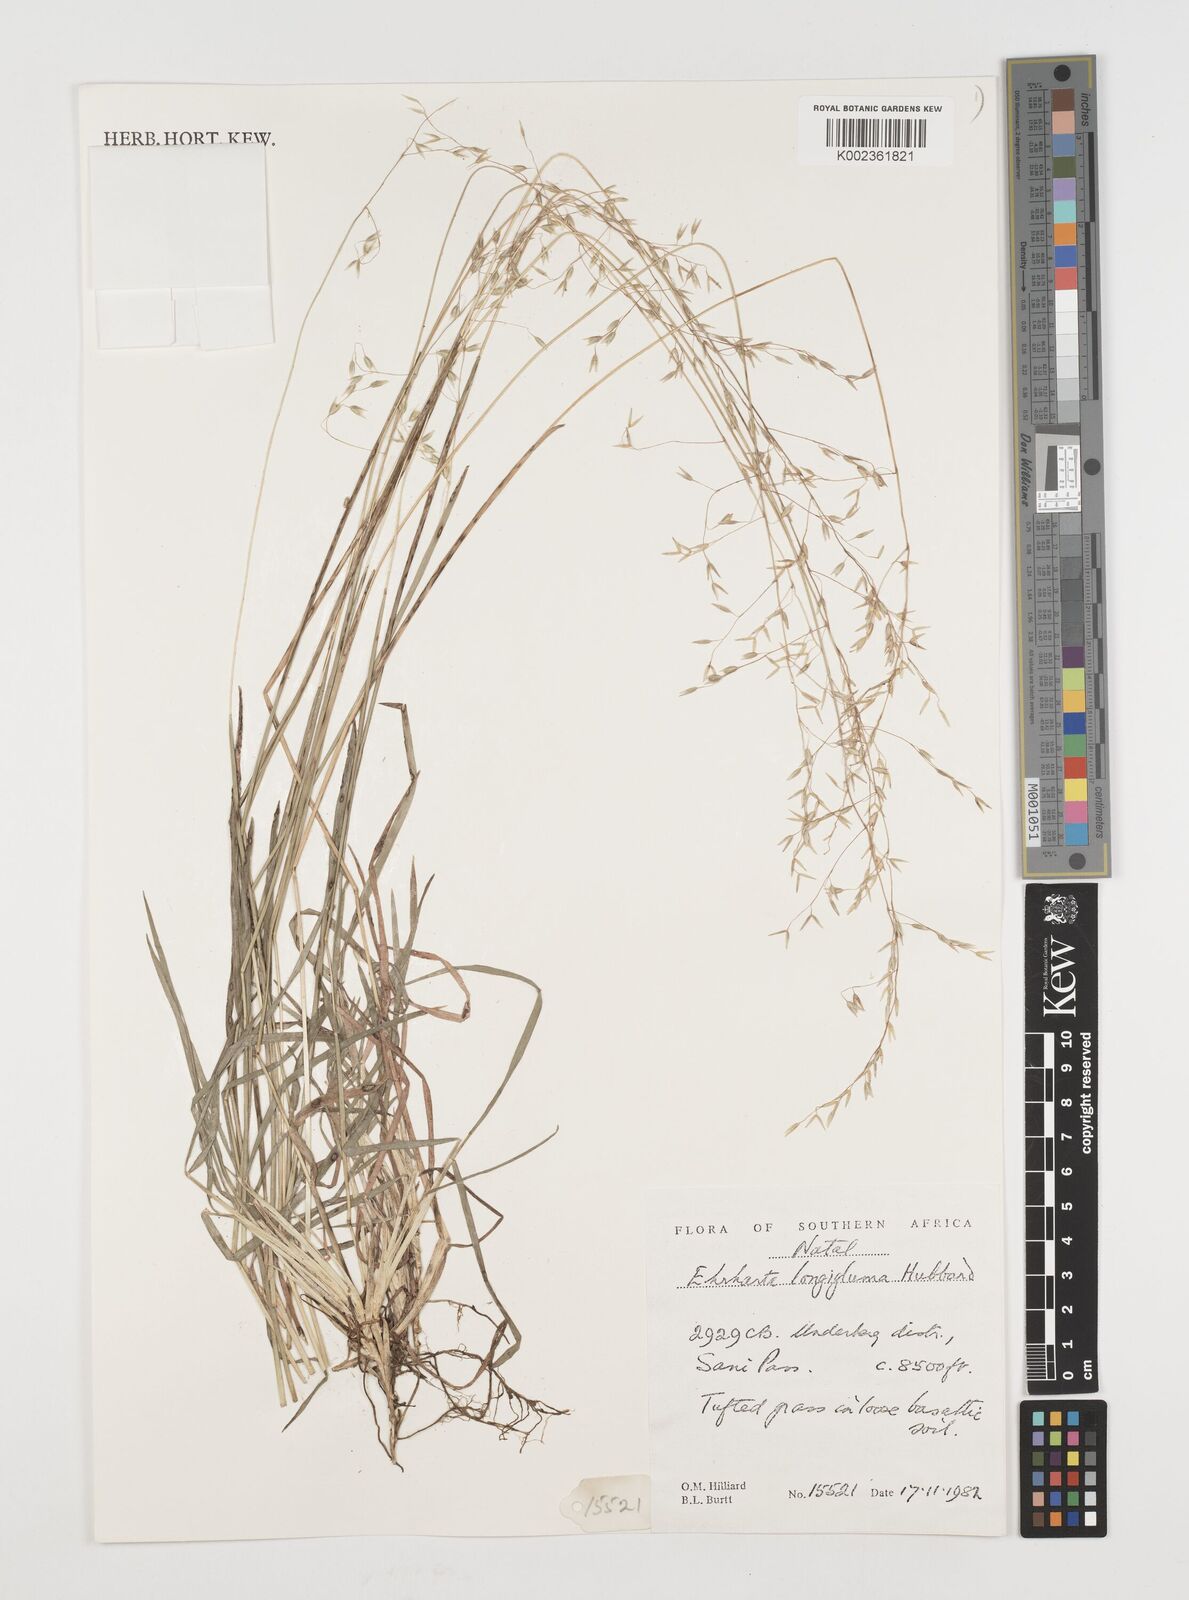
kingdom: Plantae
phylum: Tracheophyta
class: Liliopsida
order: Poales
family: Poaceae
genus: Ehrharta
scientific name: Ehrharta longigluma
